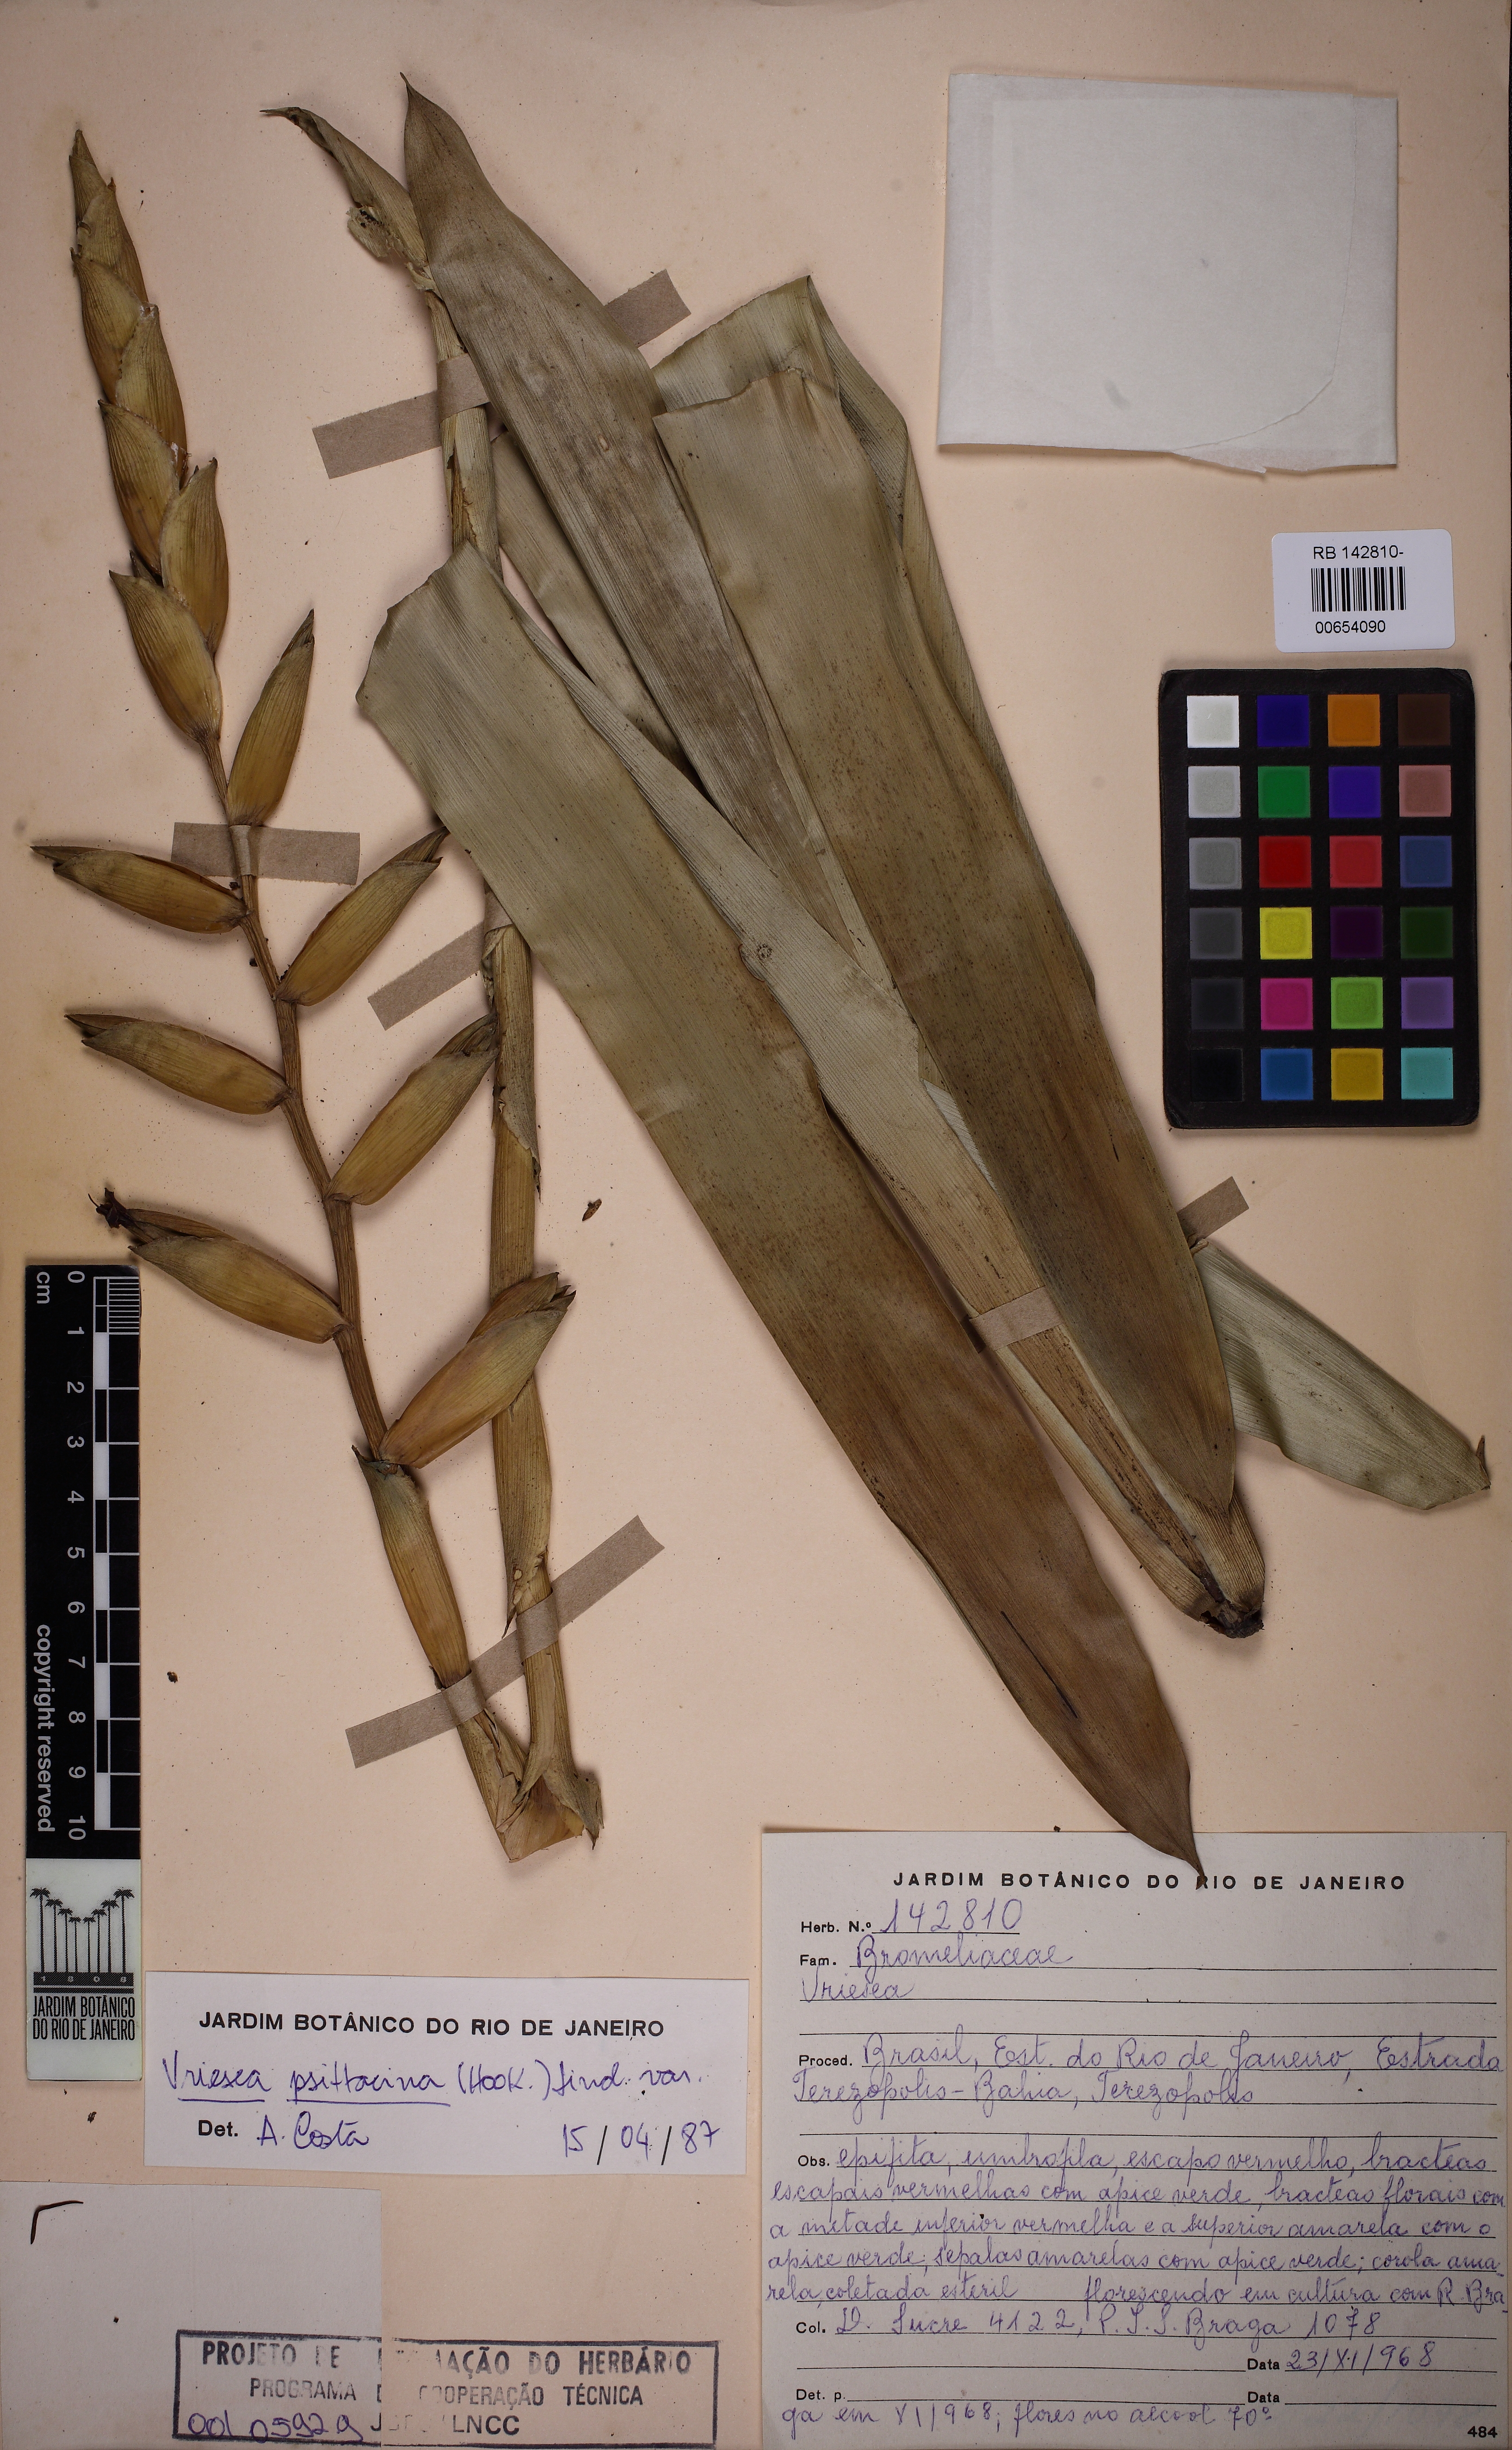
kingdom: Plantae
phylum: Tracheophyta
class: Liliopsida
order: Poales
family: Bromeliaceae
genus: Vriesea
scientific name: Vriesea psittacina
